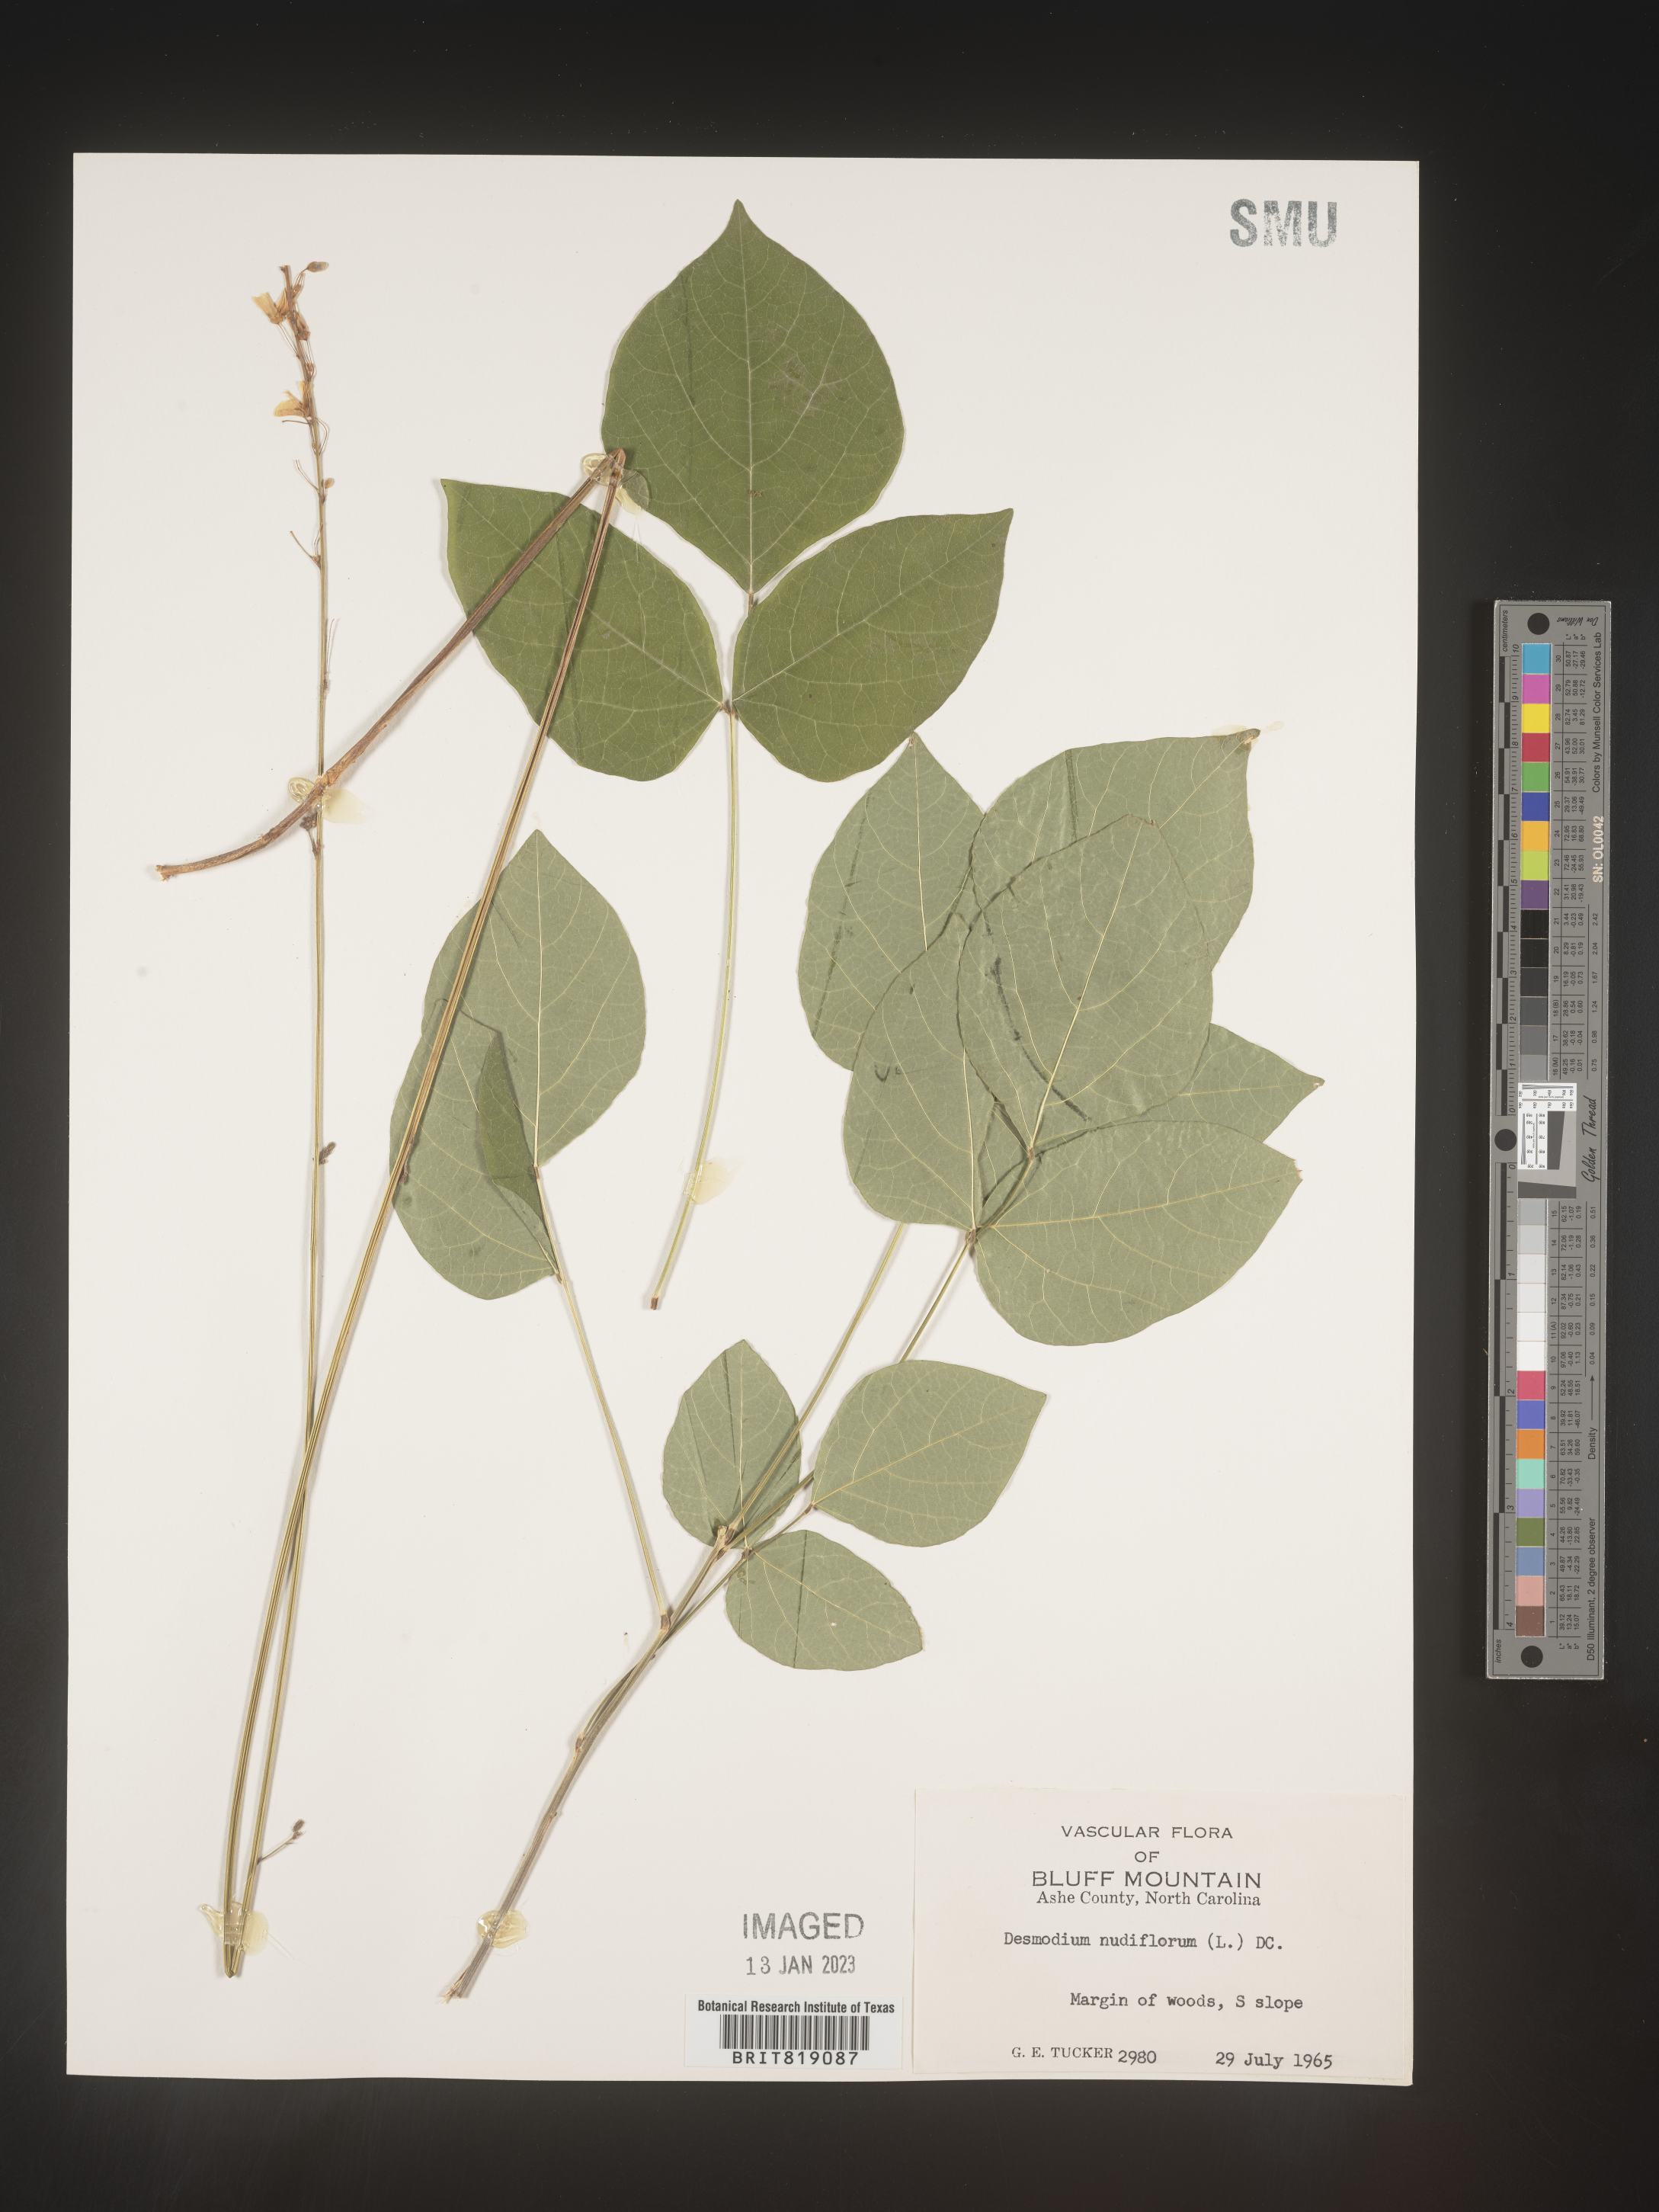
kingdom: Plantae
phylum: Tracheophyta
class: Magnoliopsida
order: Fabales
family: Fabaceae
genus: Hylodesmum
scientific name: Hylodesmum nudiflorum
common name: Bare-stemmed tick-trefoil
